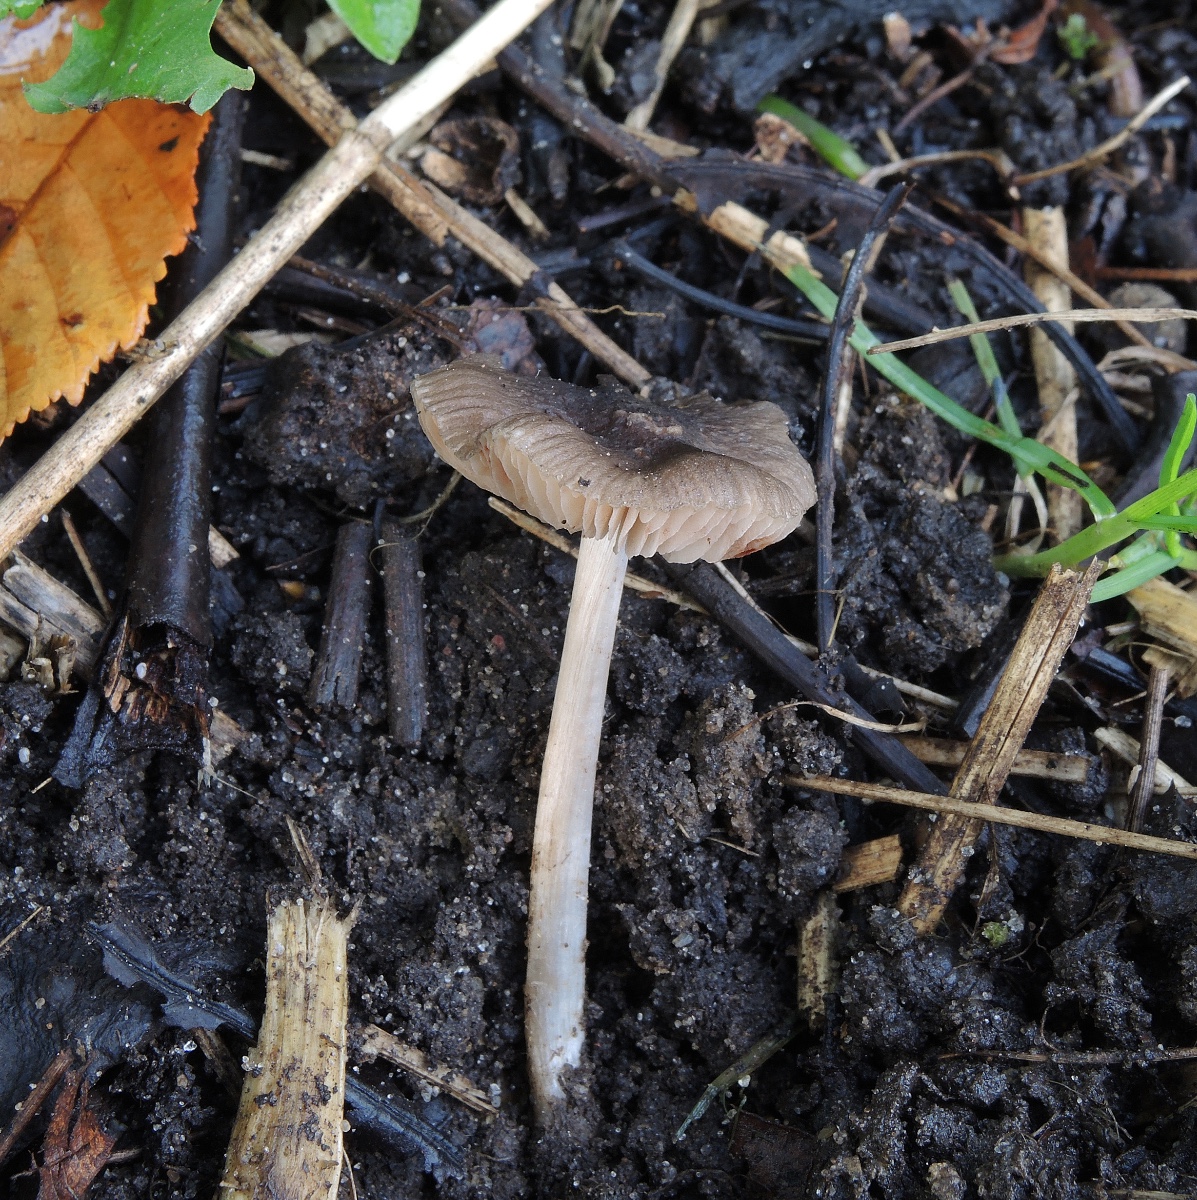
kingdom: Fungi
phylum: Basidiomycota
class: Agaricomycetes
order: Agaricales
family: Pluteaceae
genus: Pluteus
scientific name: Pluteus cinereofuscus
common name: Ashen shield
